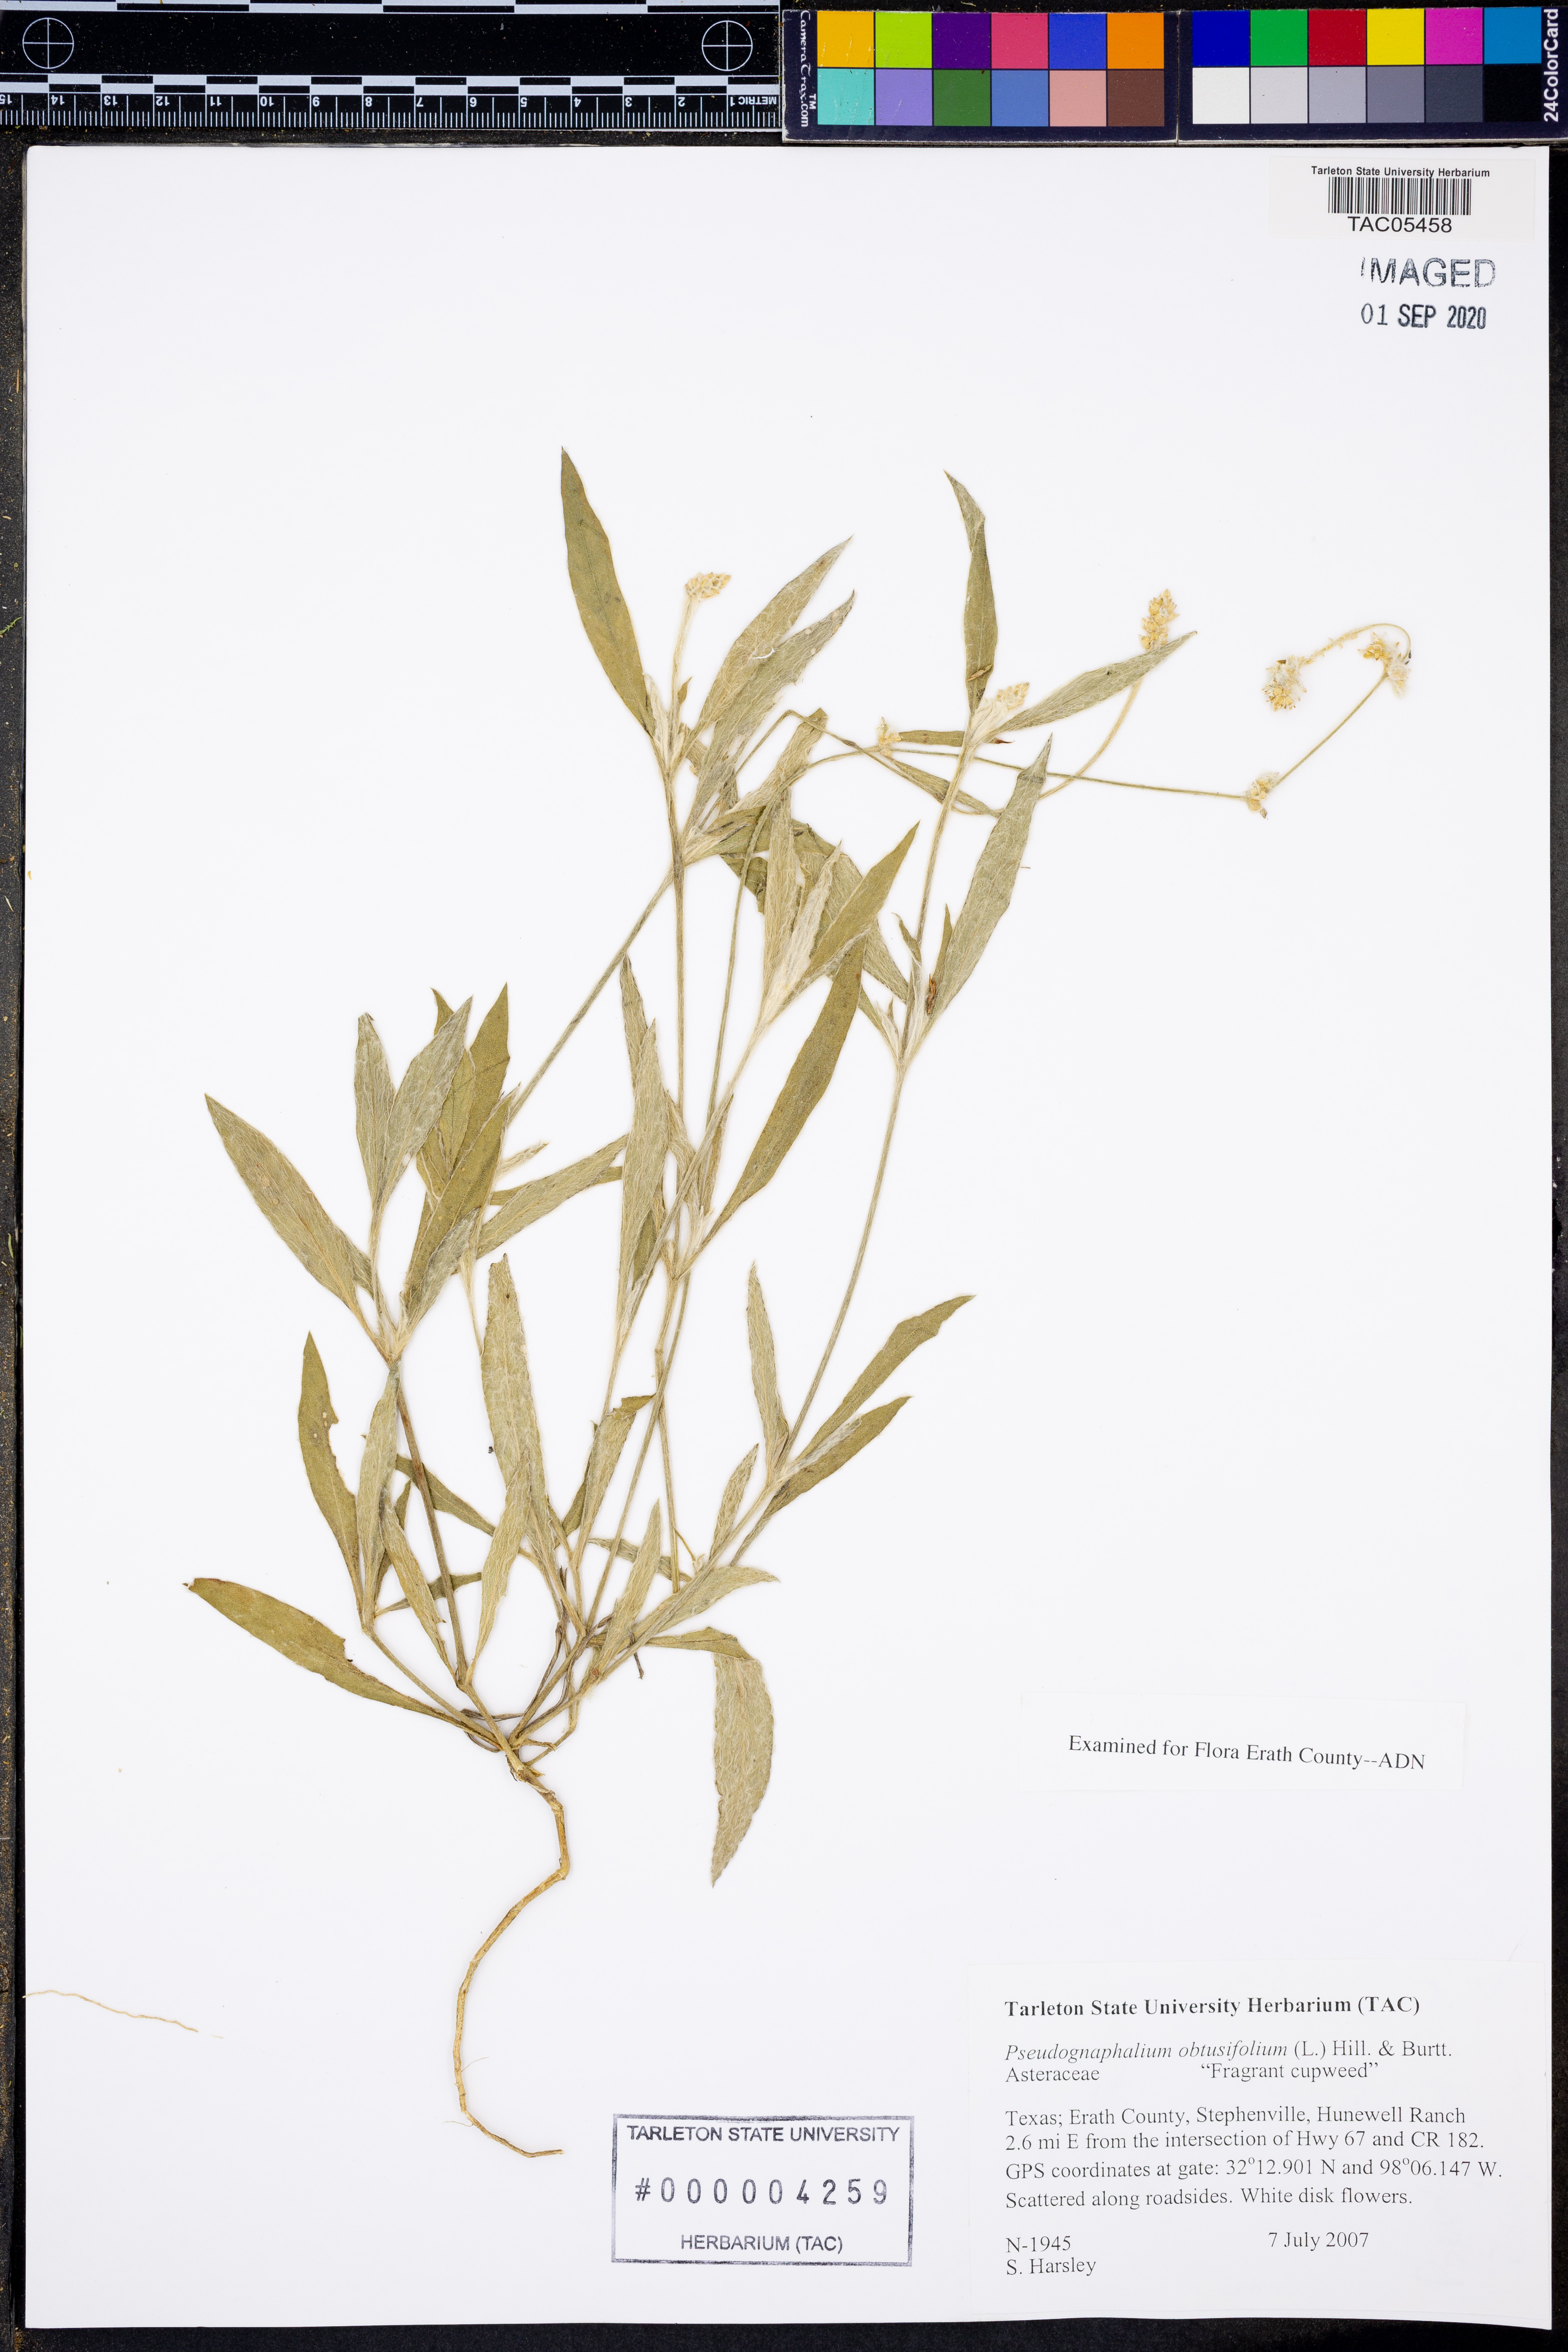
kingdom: Plantae
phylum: Tracheophyta
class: Magnoliopsida
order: Asterales
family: Asteraceae
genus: Pseudognaphalium
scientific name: Pseudognaphalium obtusifolium
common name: Eastern rabbit-tobacco
